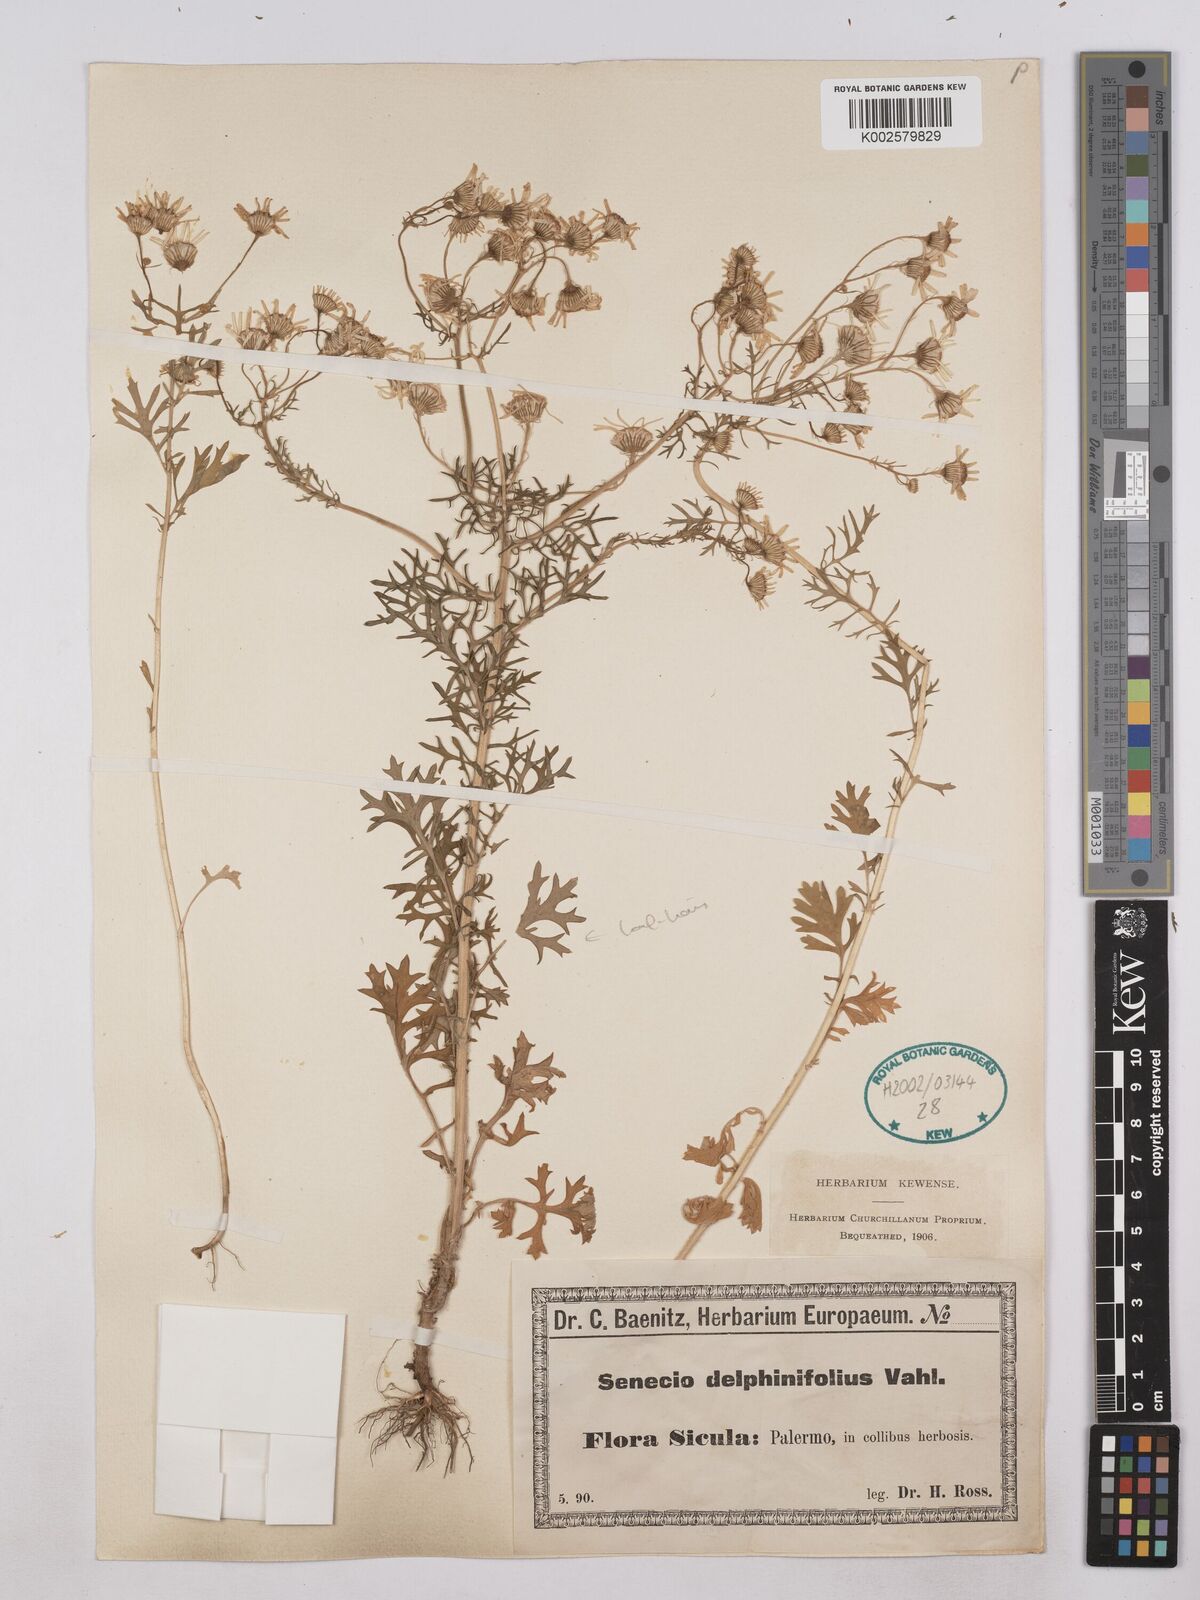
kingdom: Plantae
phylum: Tracheophyta
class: Magnoliopsida
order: Asterales
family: Asteraceae
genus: Jacobaea
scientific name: Jacobaea erucifolia
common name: Hoary ragwort
